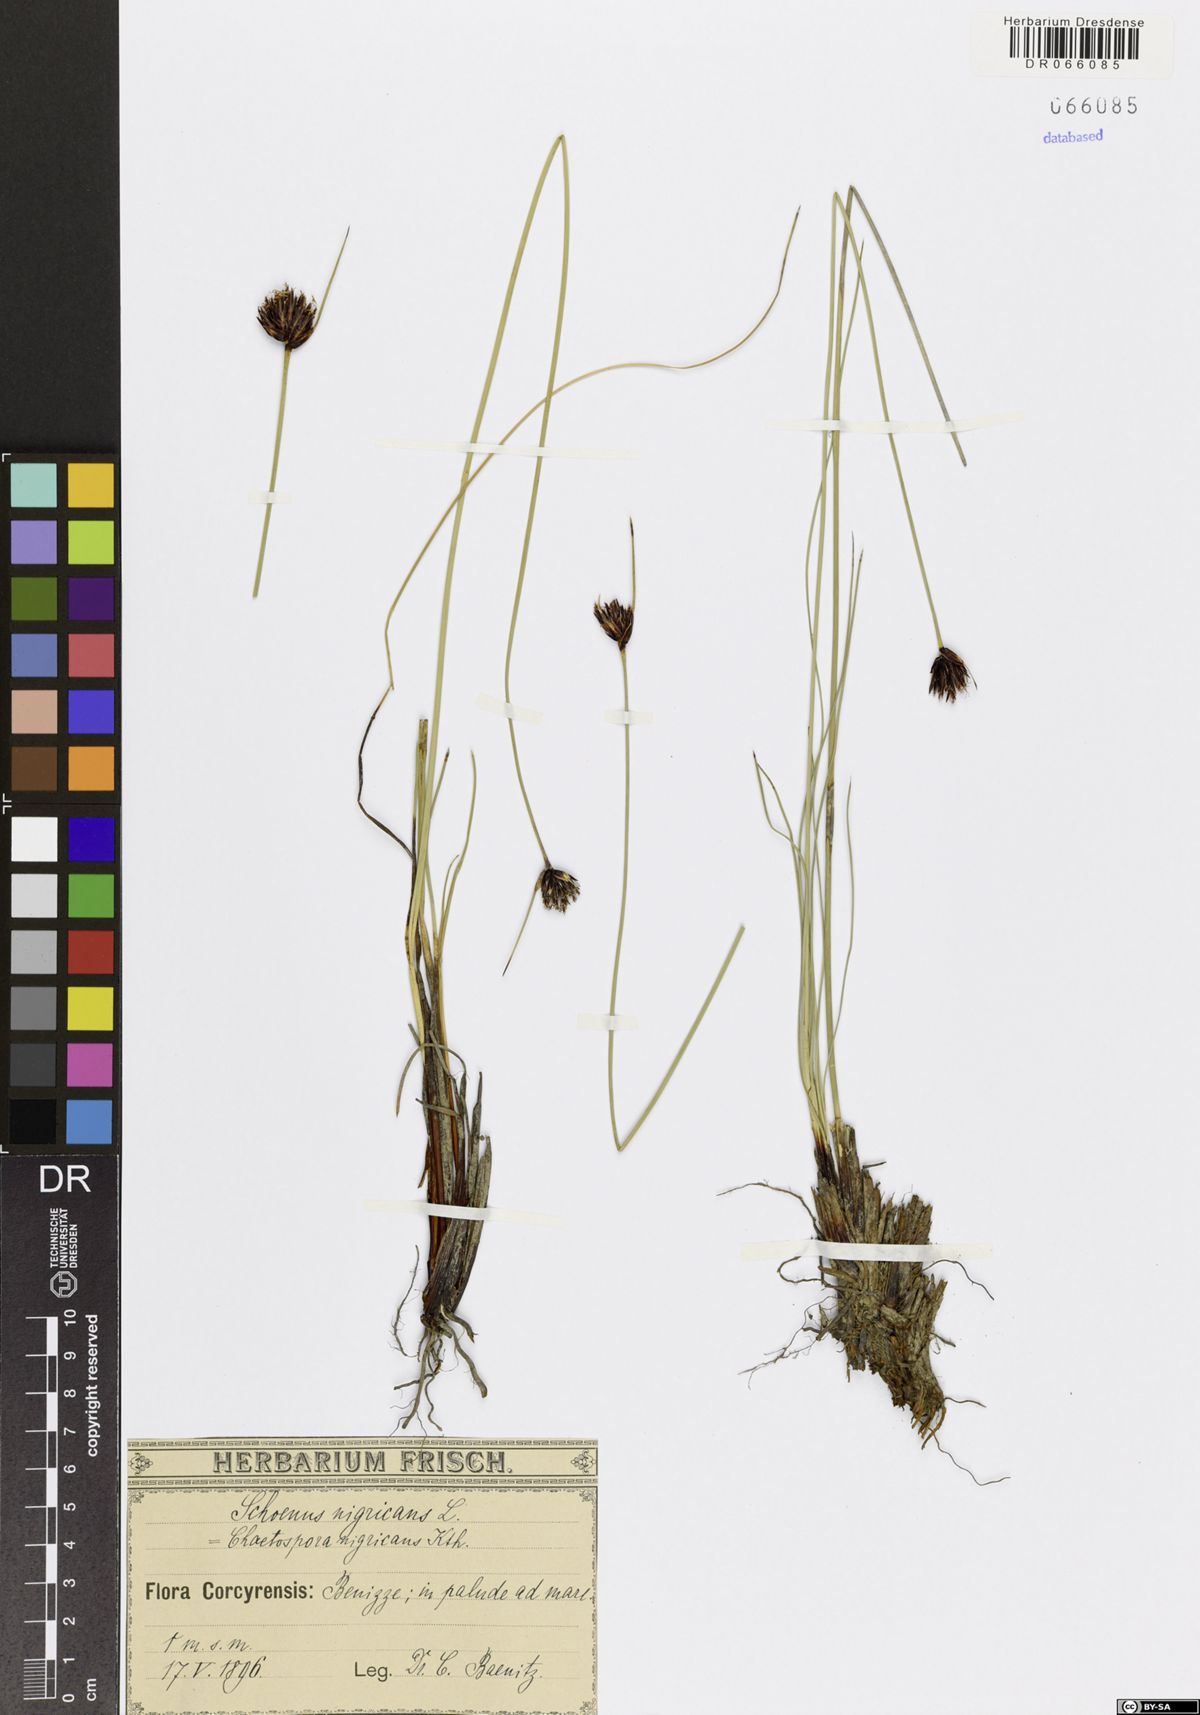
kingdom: Plantae
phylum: Tracheophyta
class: Liliopsida
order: Poales
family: Cyperaceae
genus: Schoenus
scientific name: Schoenus nigricans
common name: Black bog-rush
